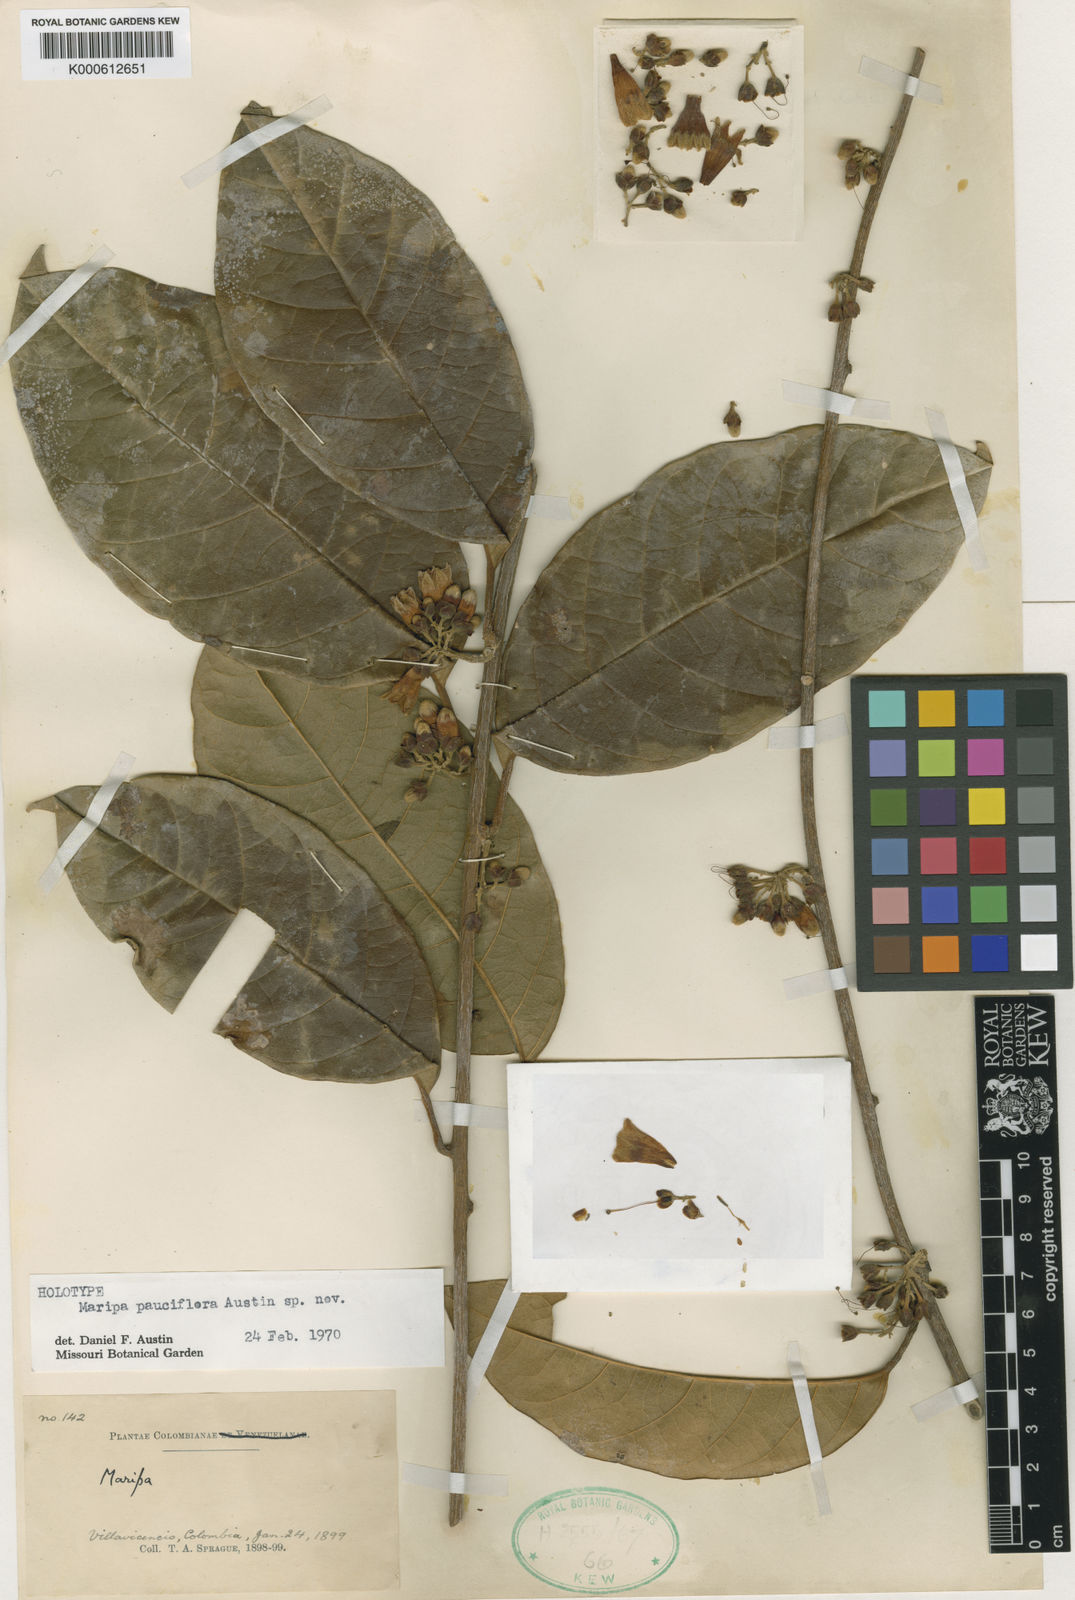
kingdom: Plantae
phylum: Tracheophyta
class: Magnoliopsida
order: Solanales
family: Convolvulaceae
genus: Maripa
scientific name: Maripa pauciflora
